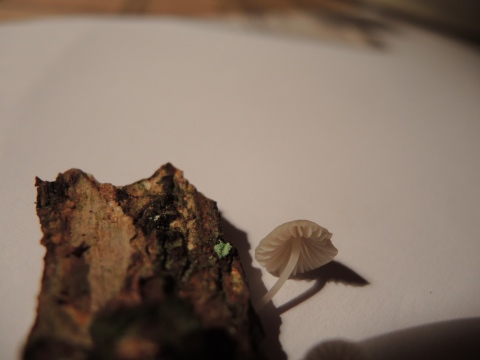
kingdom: Fungi
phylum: Basidiomycota
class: Agaricomycetes
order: Agaricales
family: Porotheleaceae
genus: Phloeomana
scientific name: Phloeomana hiemalis
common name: sen huesvamp
